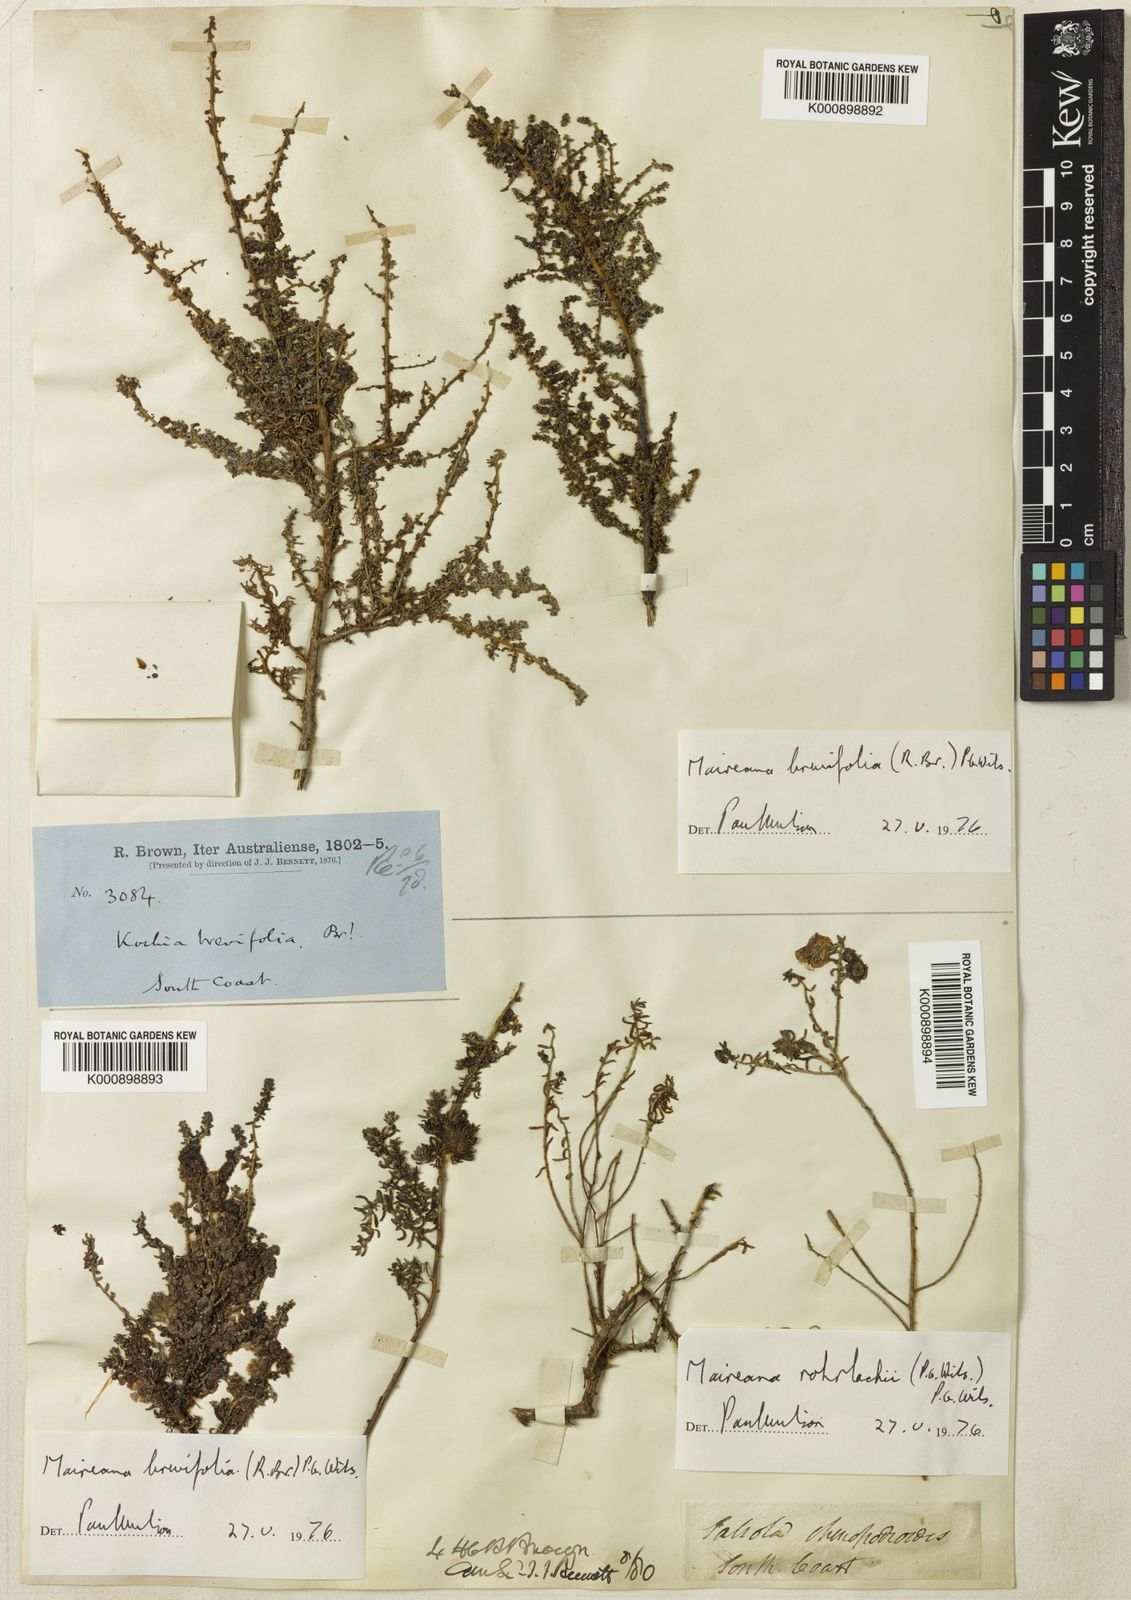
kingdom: Plantae
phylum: Tracheophyta
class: Magnoliopsida
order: Caryophyllales
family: Amaranthaceae
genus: Maireana
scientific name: Maireana brevifolia
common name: Eastern cottonbush
